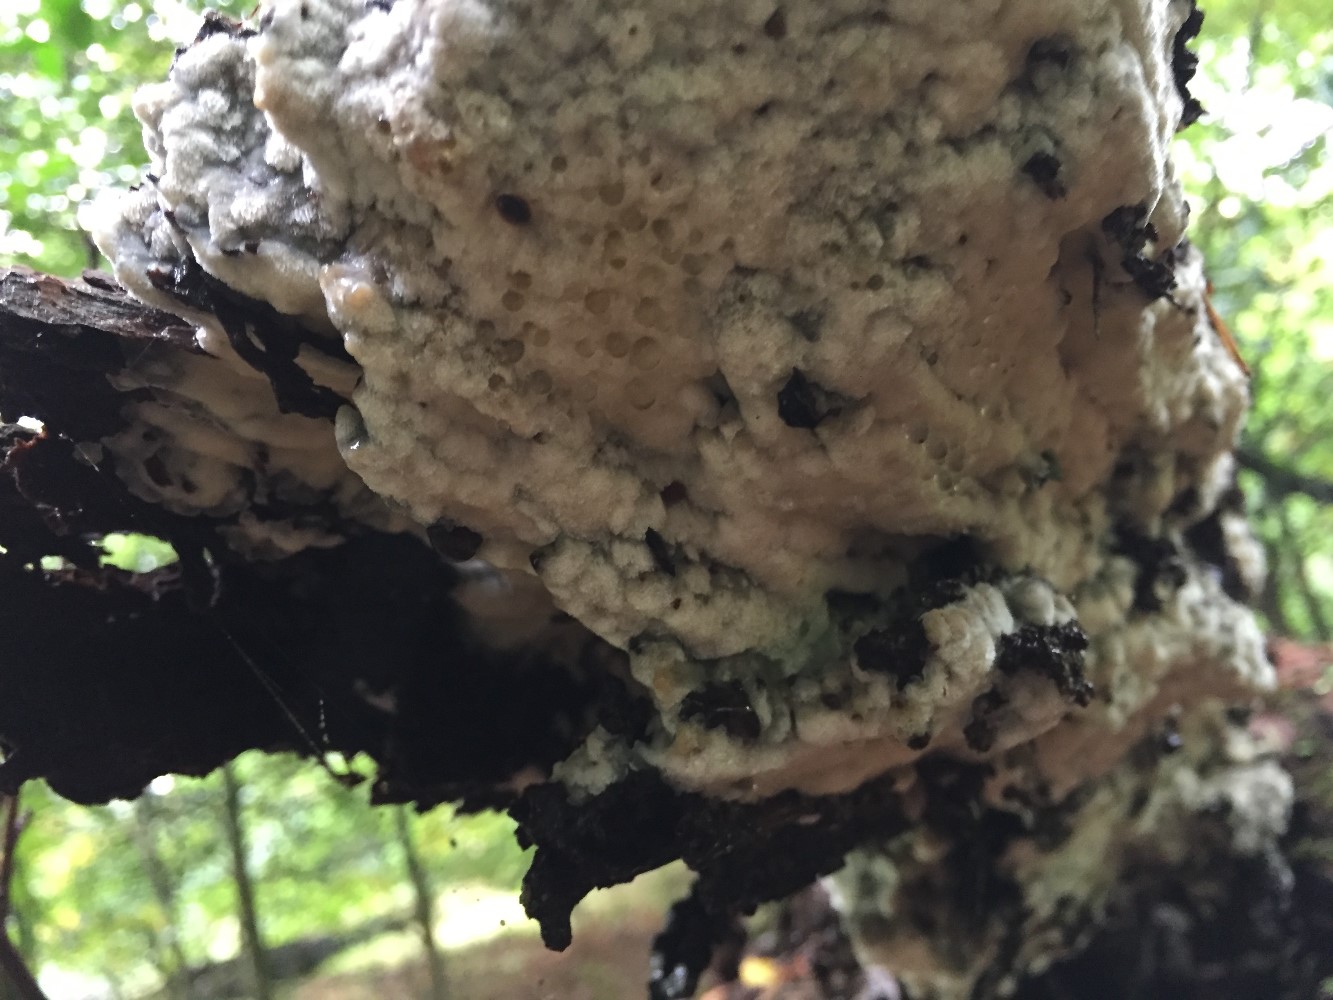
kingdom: Fungi
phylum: Basidiomycota
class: Agaricomycetes
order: Polyporales
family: Meruliaceae
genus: Physisporinus
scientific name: Physisporinus vitreus
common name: mastesvamp
